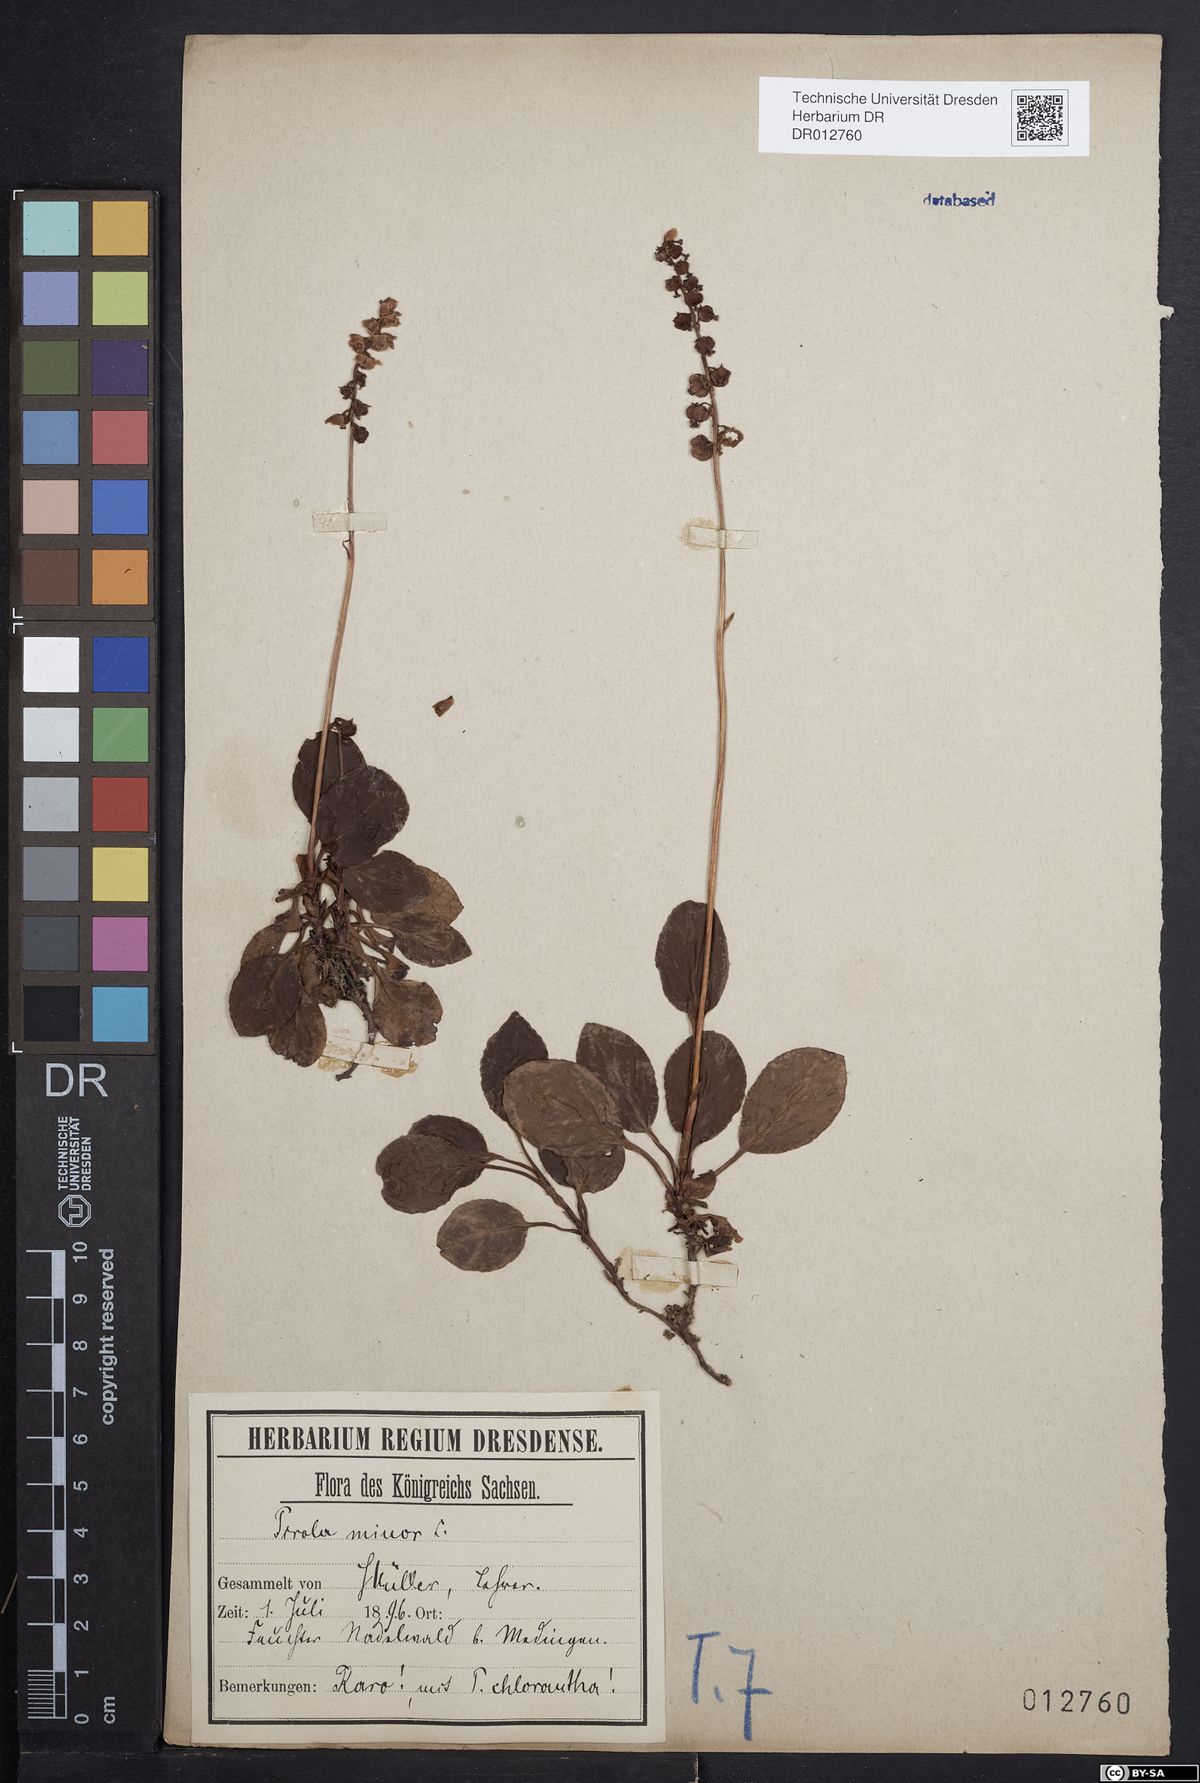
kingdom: Plantae
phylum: Tracheophyta
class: Magnoliopsida
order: Ericales
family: Ericaceae
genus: Pyrola
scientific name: Pyrola minor
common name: Common wintergreen
